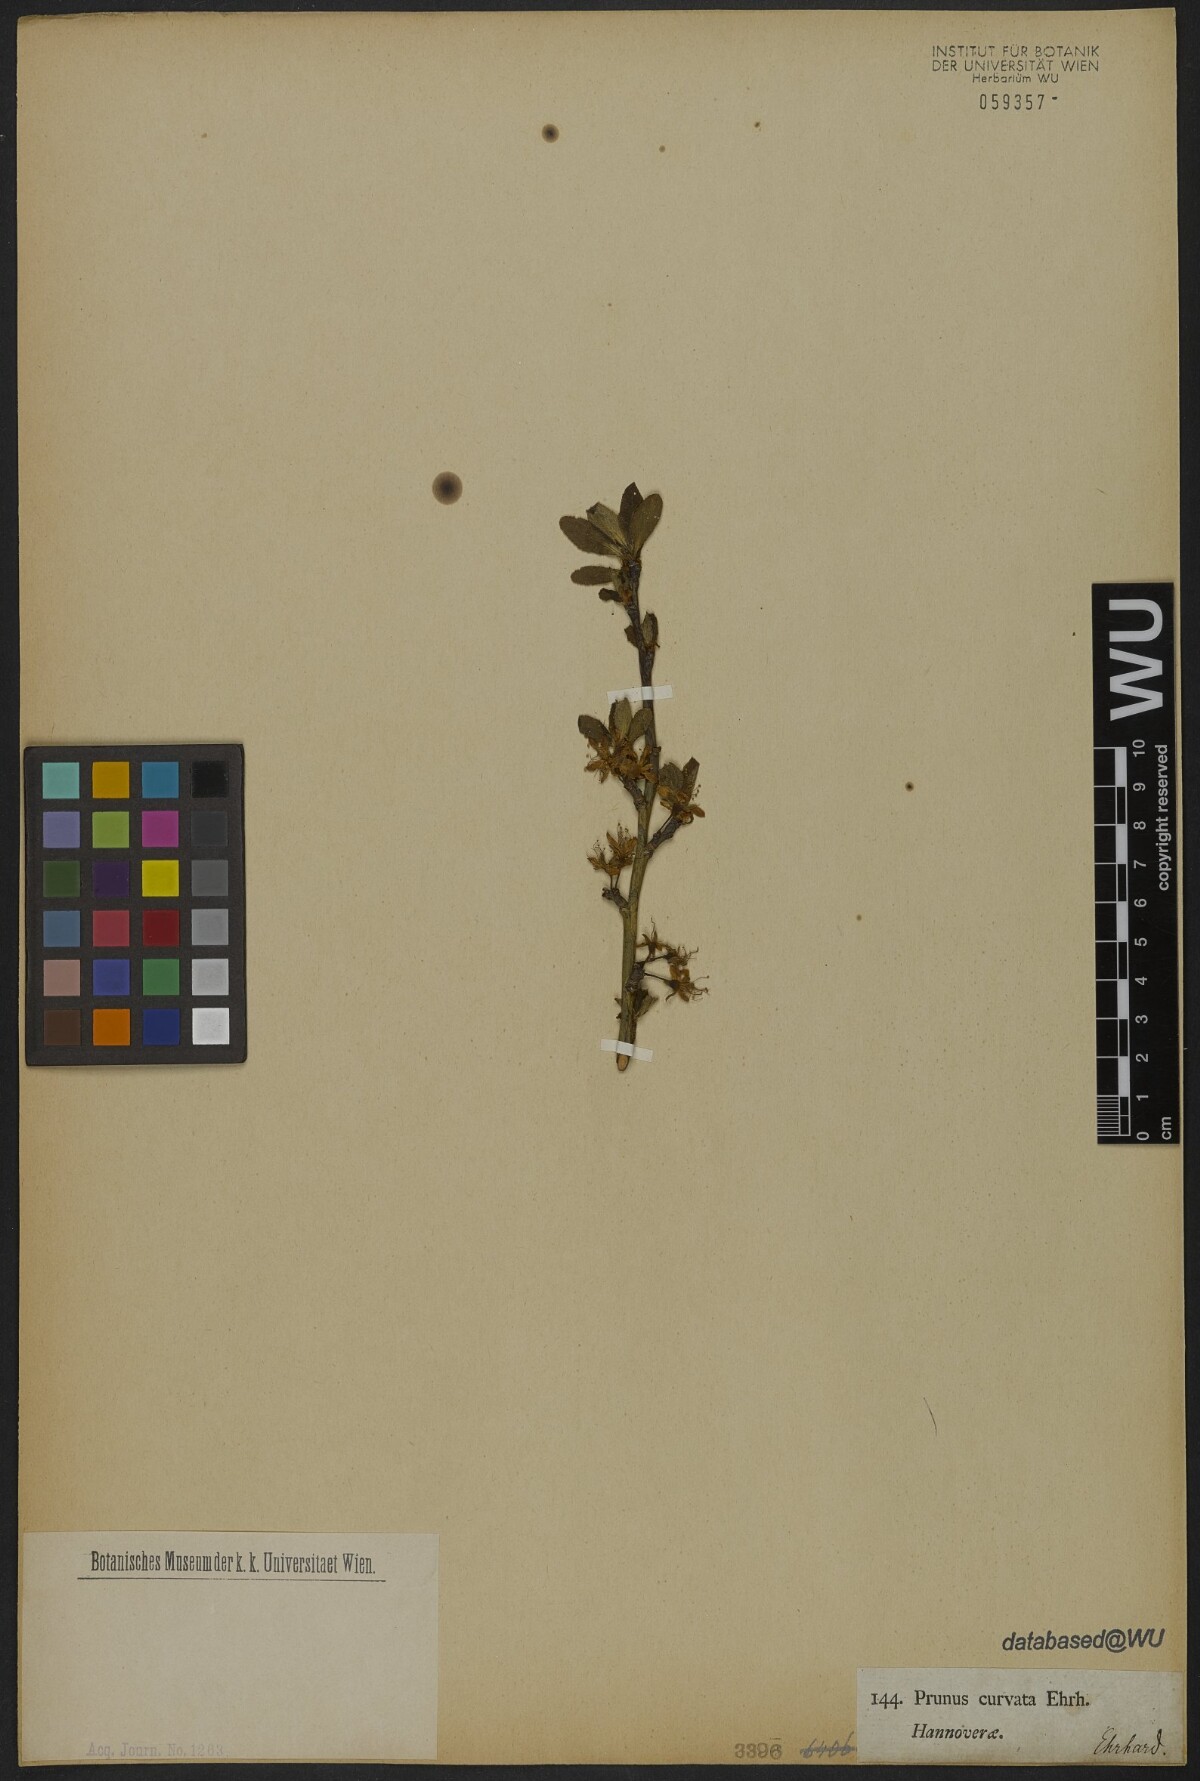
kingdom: Plantae
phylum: Tracheophyta
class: Magnoliopsida
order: Rosales
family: Rosaceae
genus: Prunus
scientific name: Prunus
